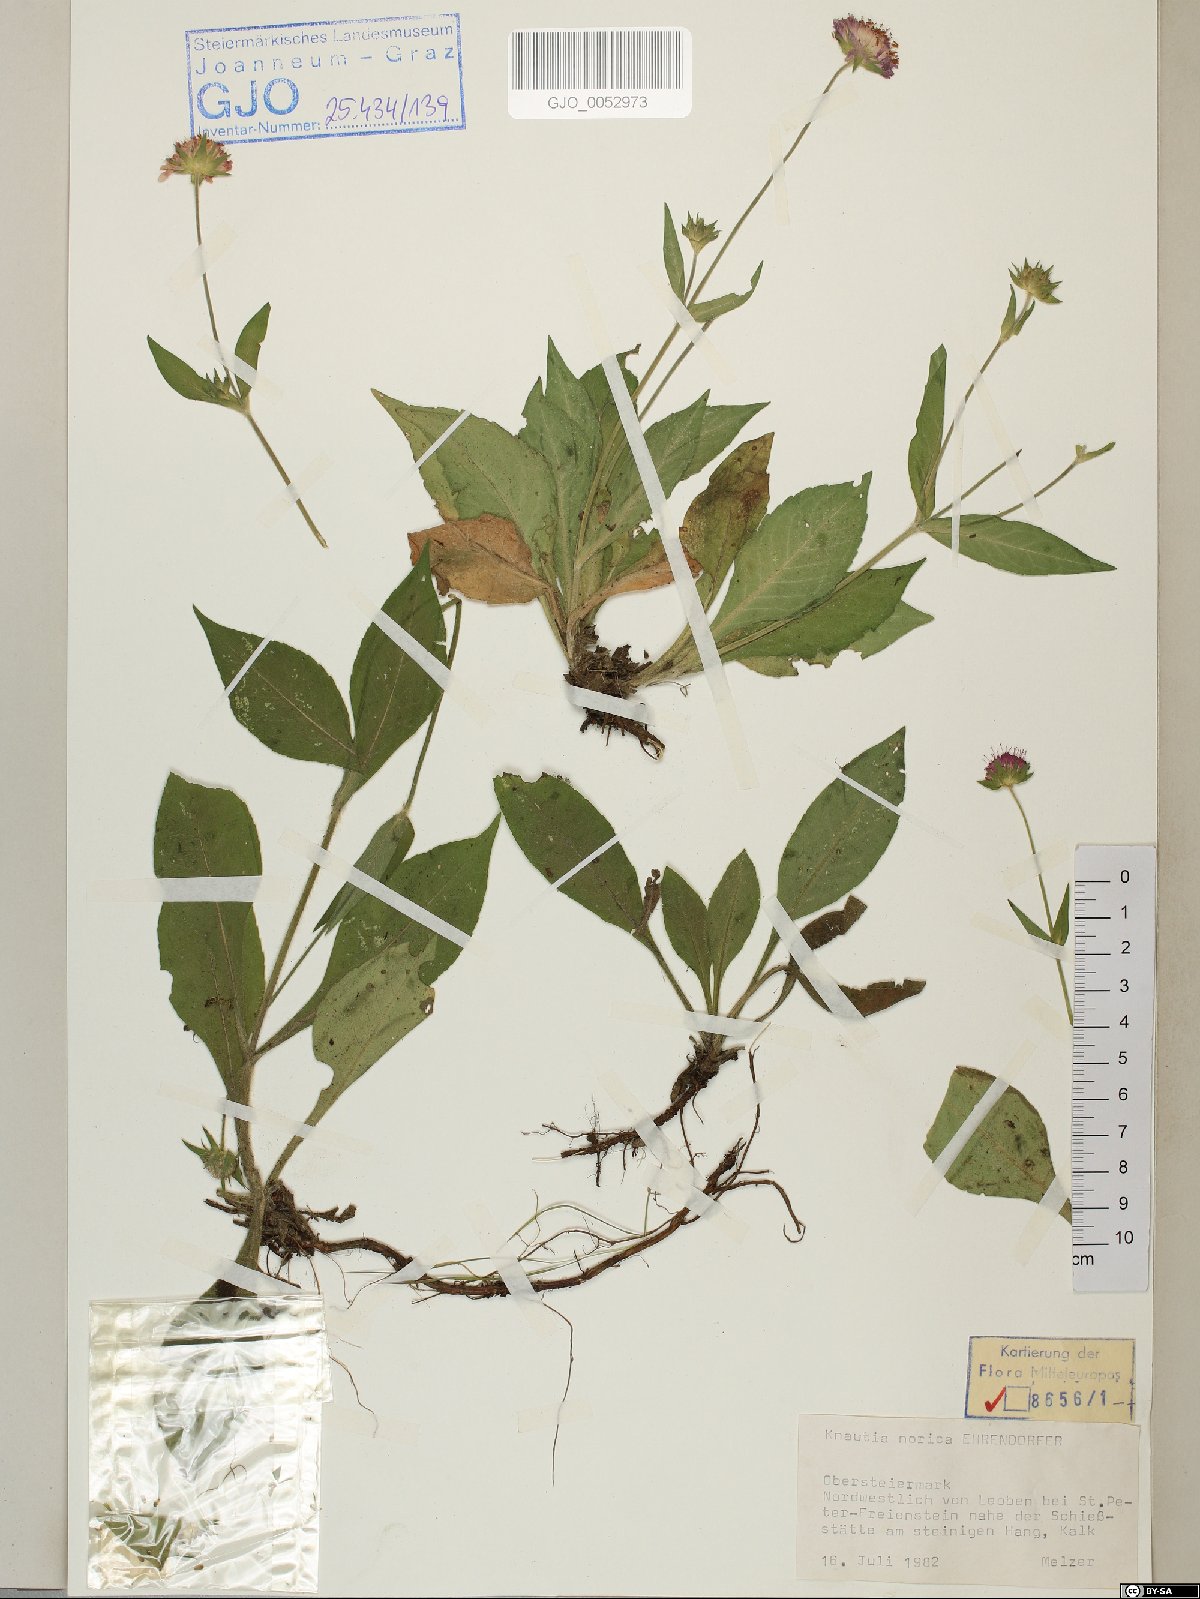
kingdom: Plantae
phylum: Tracheophyta
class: Magnoliopsida
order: Dipsacales
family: Caprifoliaceae
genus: Knautia
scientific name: Knautia norica
